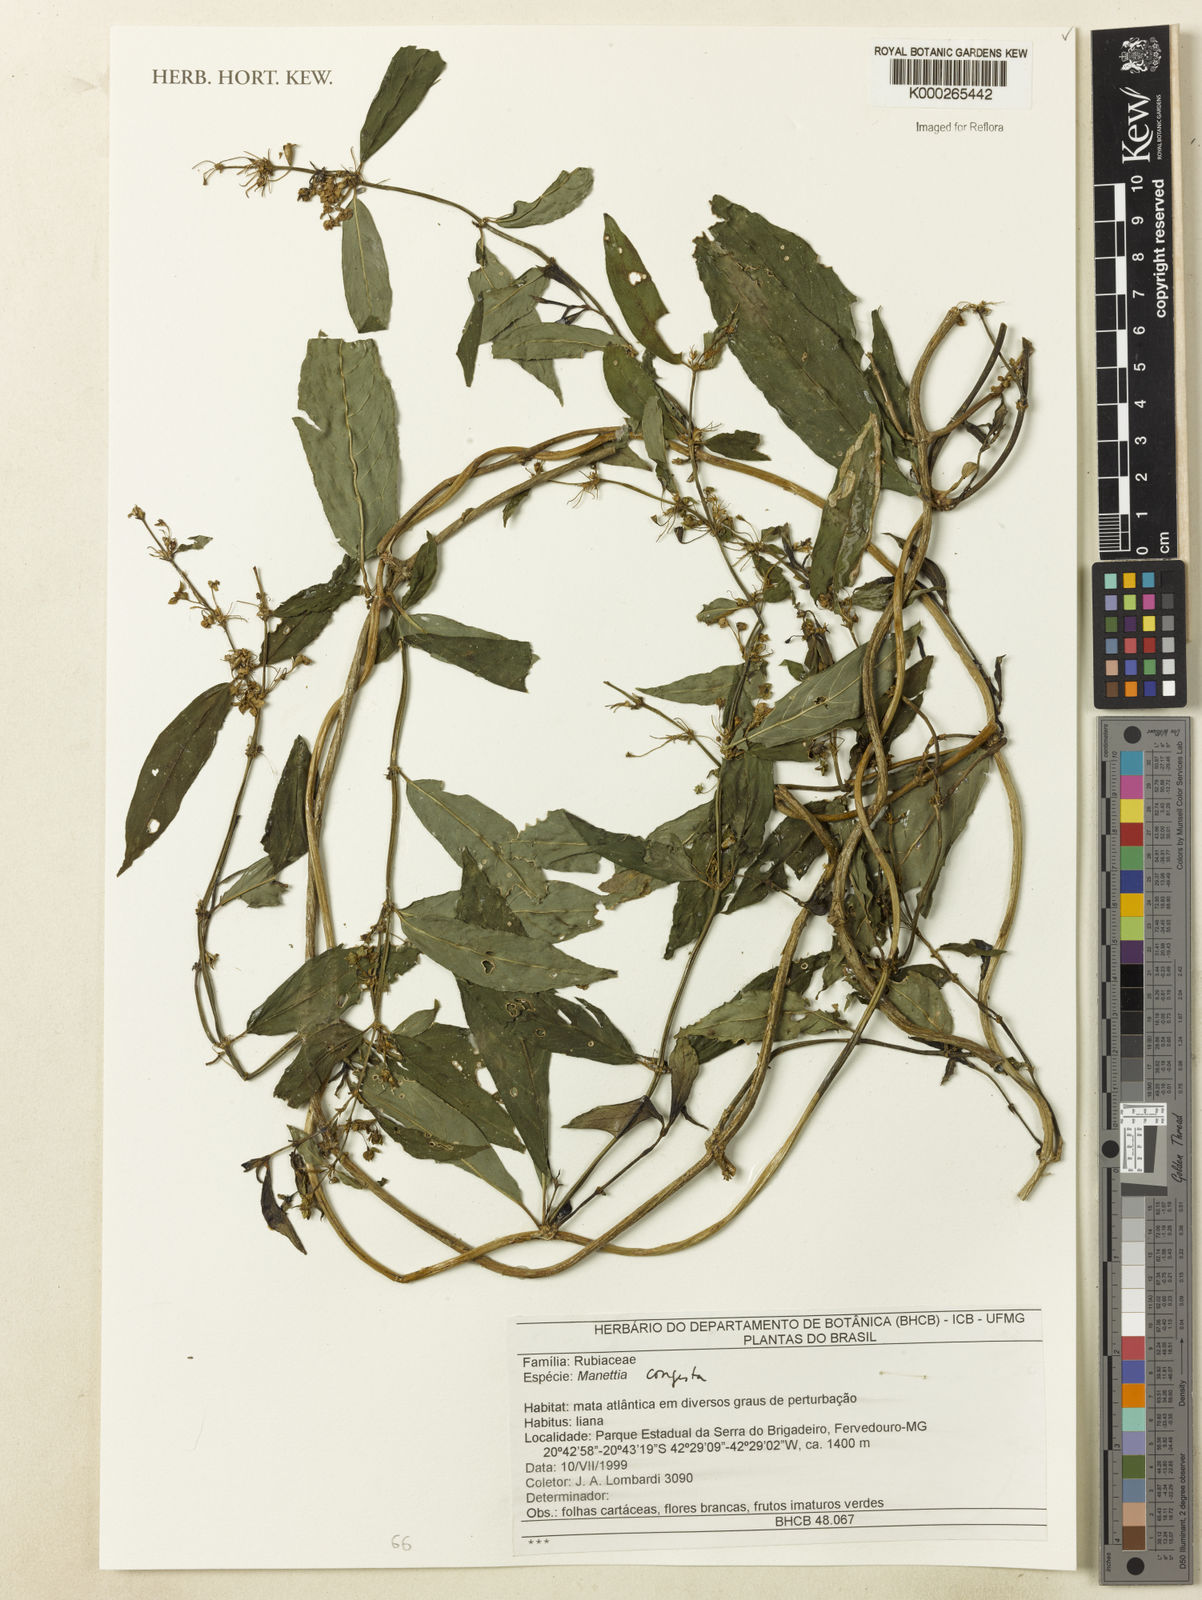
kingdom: Plantae
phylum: Tracheophyta
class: Magnoliopsida
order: Gentianales
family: Rubiaceae
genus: Manettia
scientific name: Manettia congesta
